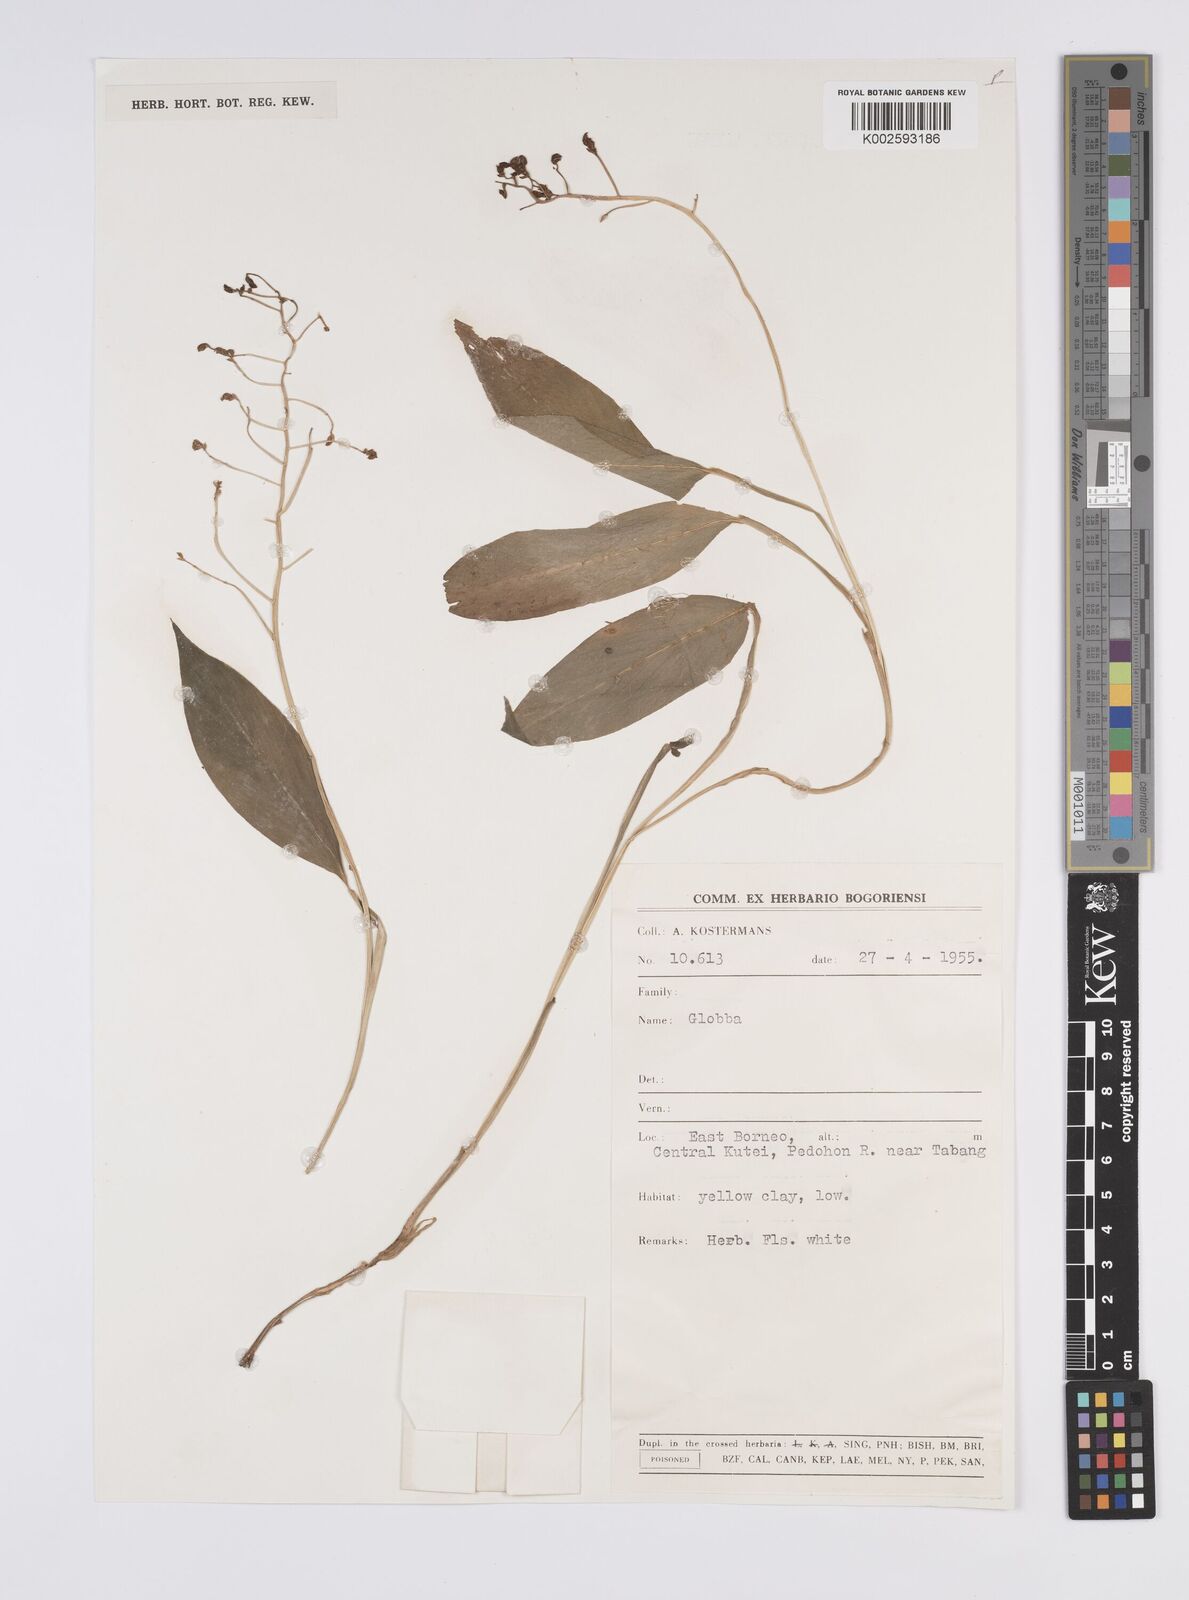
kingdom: Plantae
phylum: Tracheophyta
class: Liliopsida
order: Zingiberales
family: Zingiberaceae
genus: Globba
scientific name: Globba
